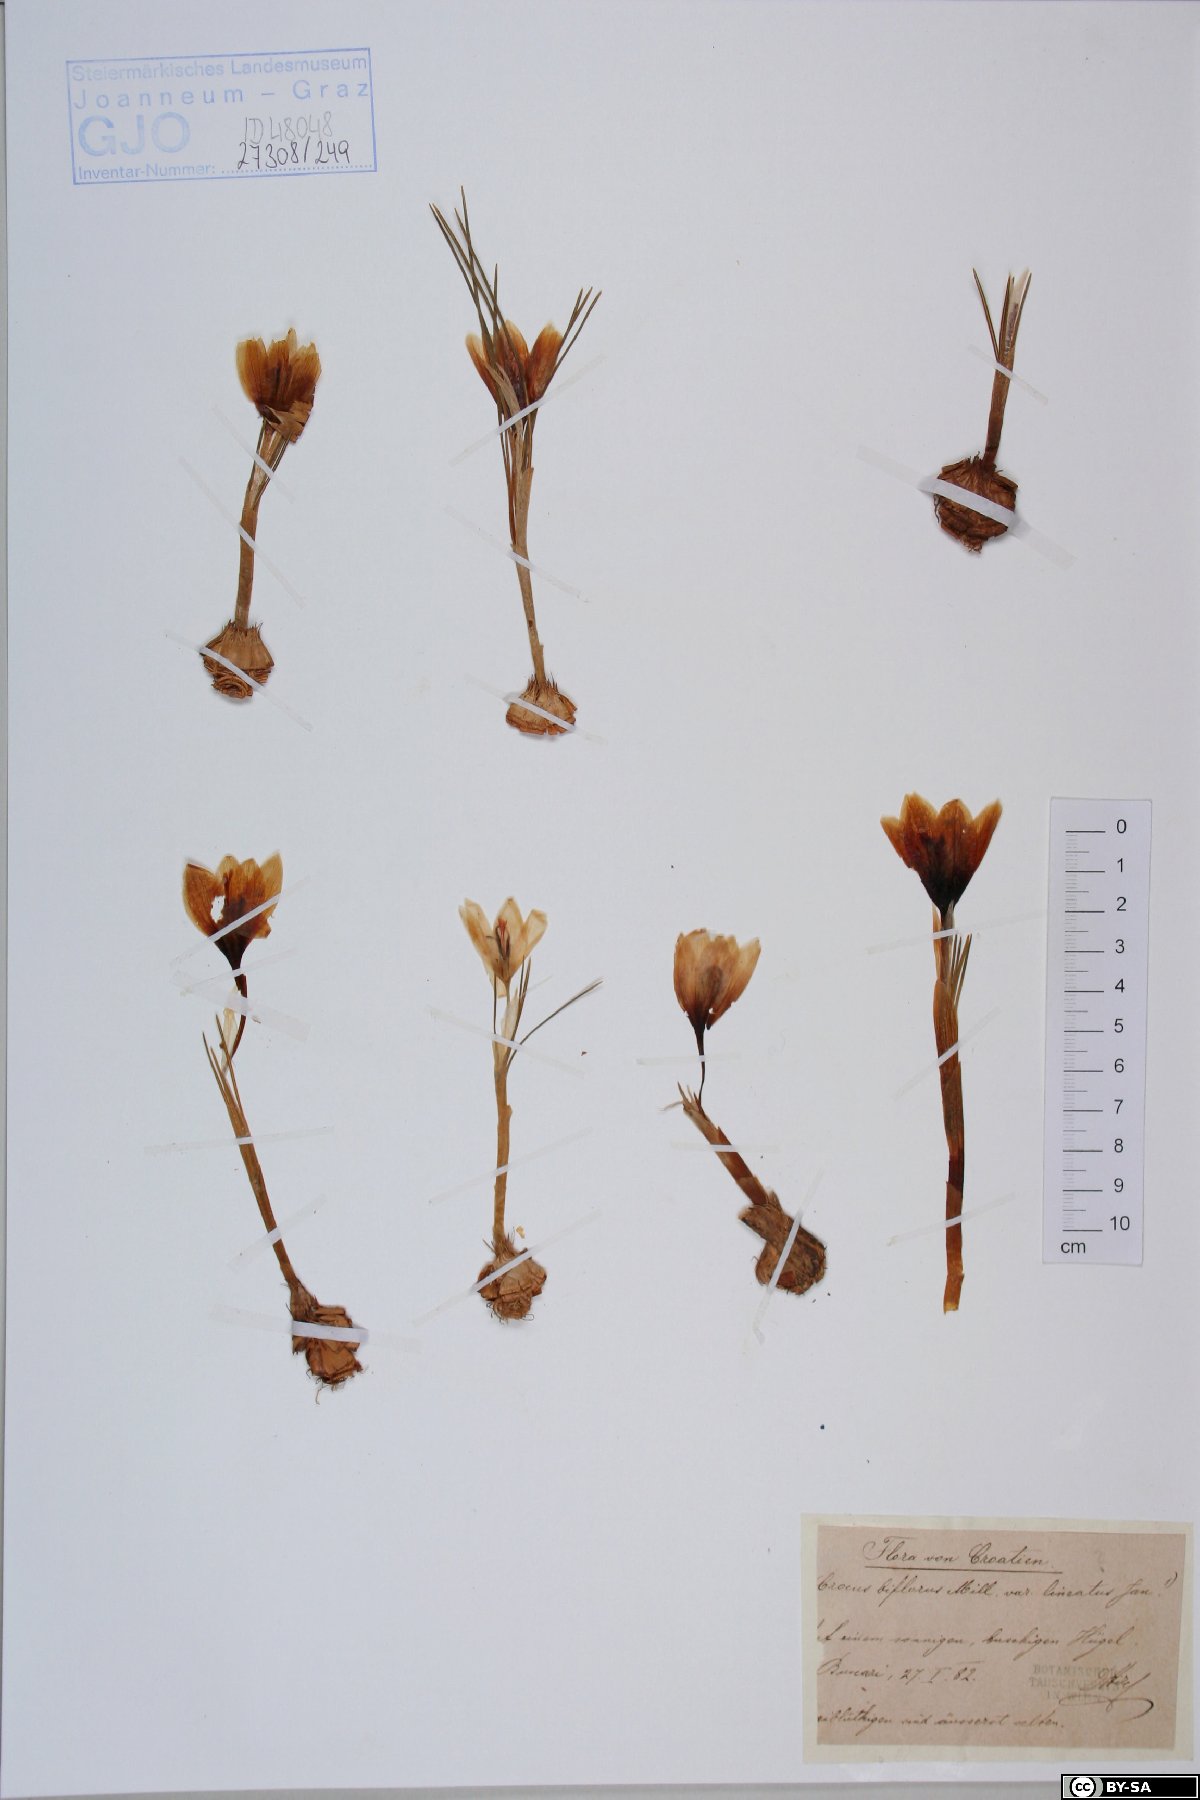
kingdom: Plantae
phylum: Tracheophyta
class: Liliopsida
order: Asparagales
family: Iridaceae
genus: Crocus
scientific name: Crocus weldenii
